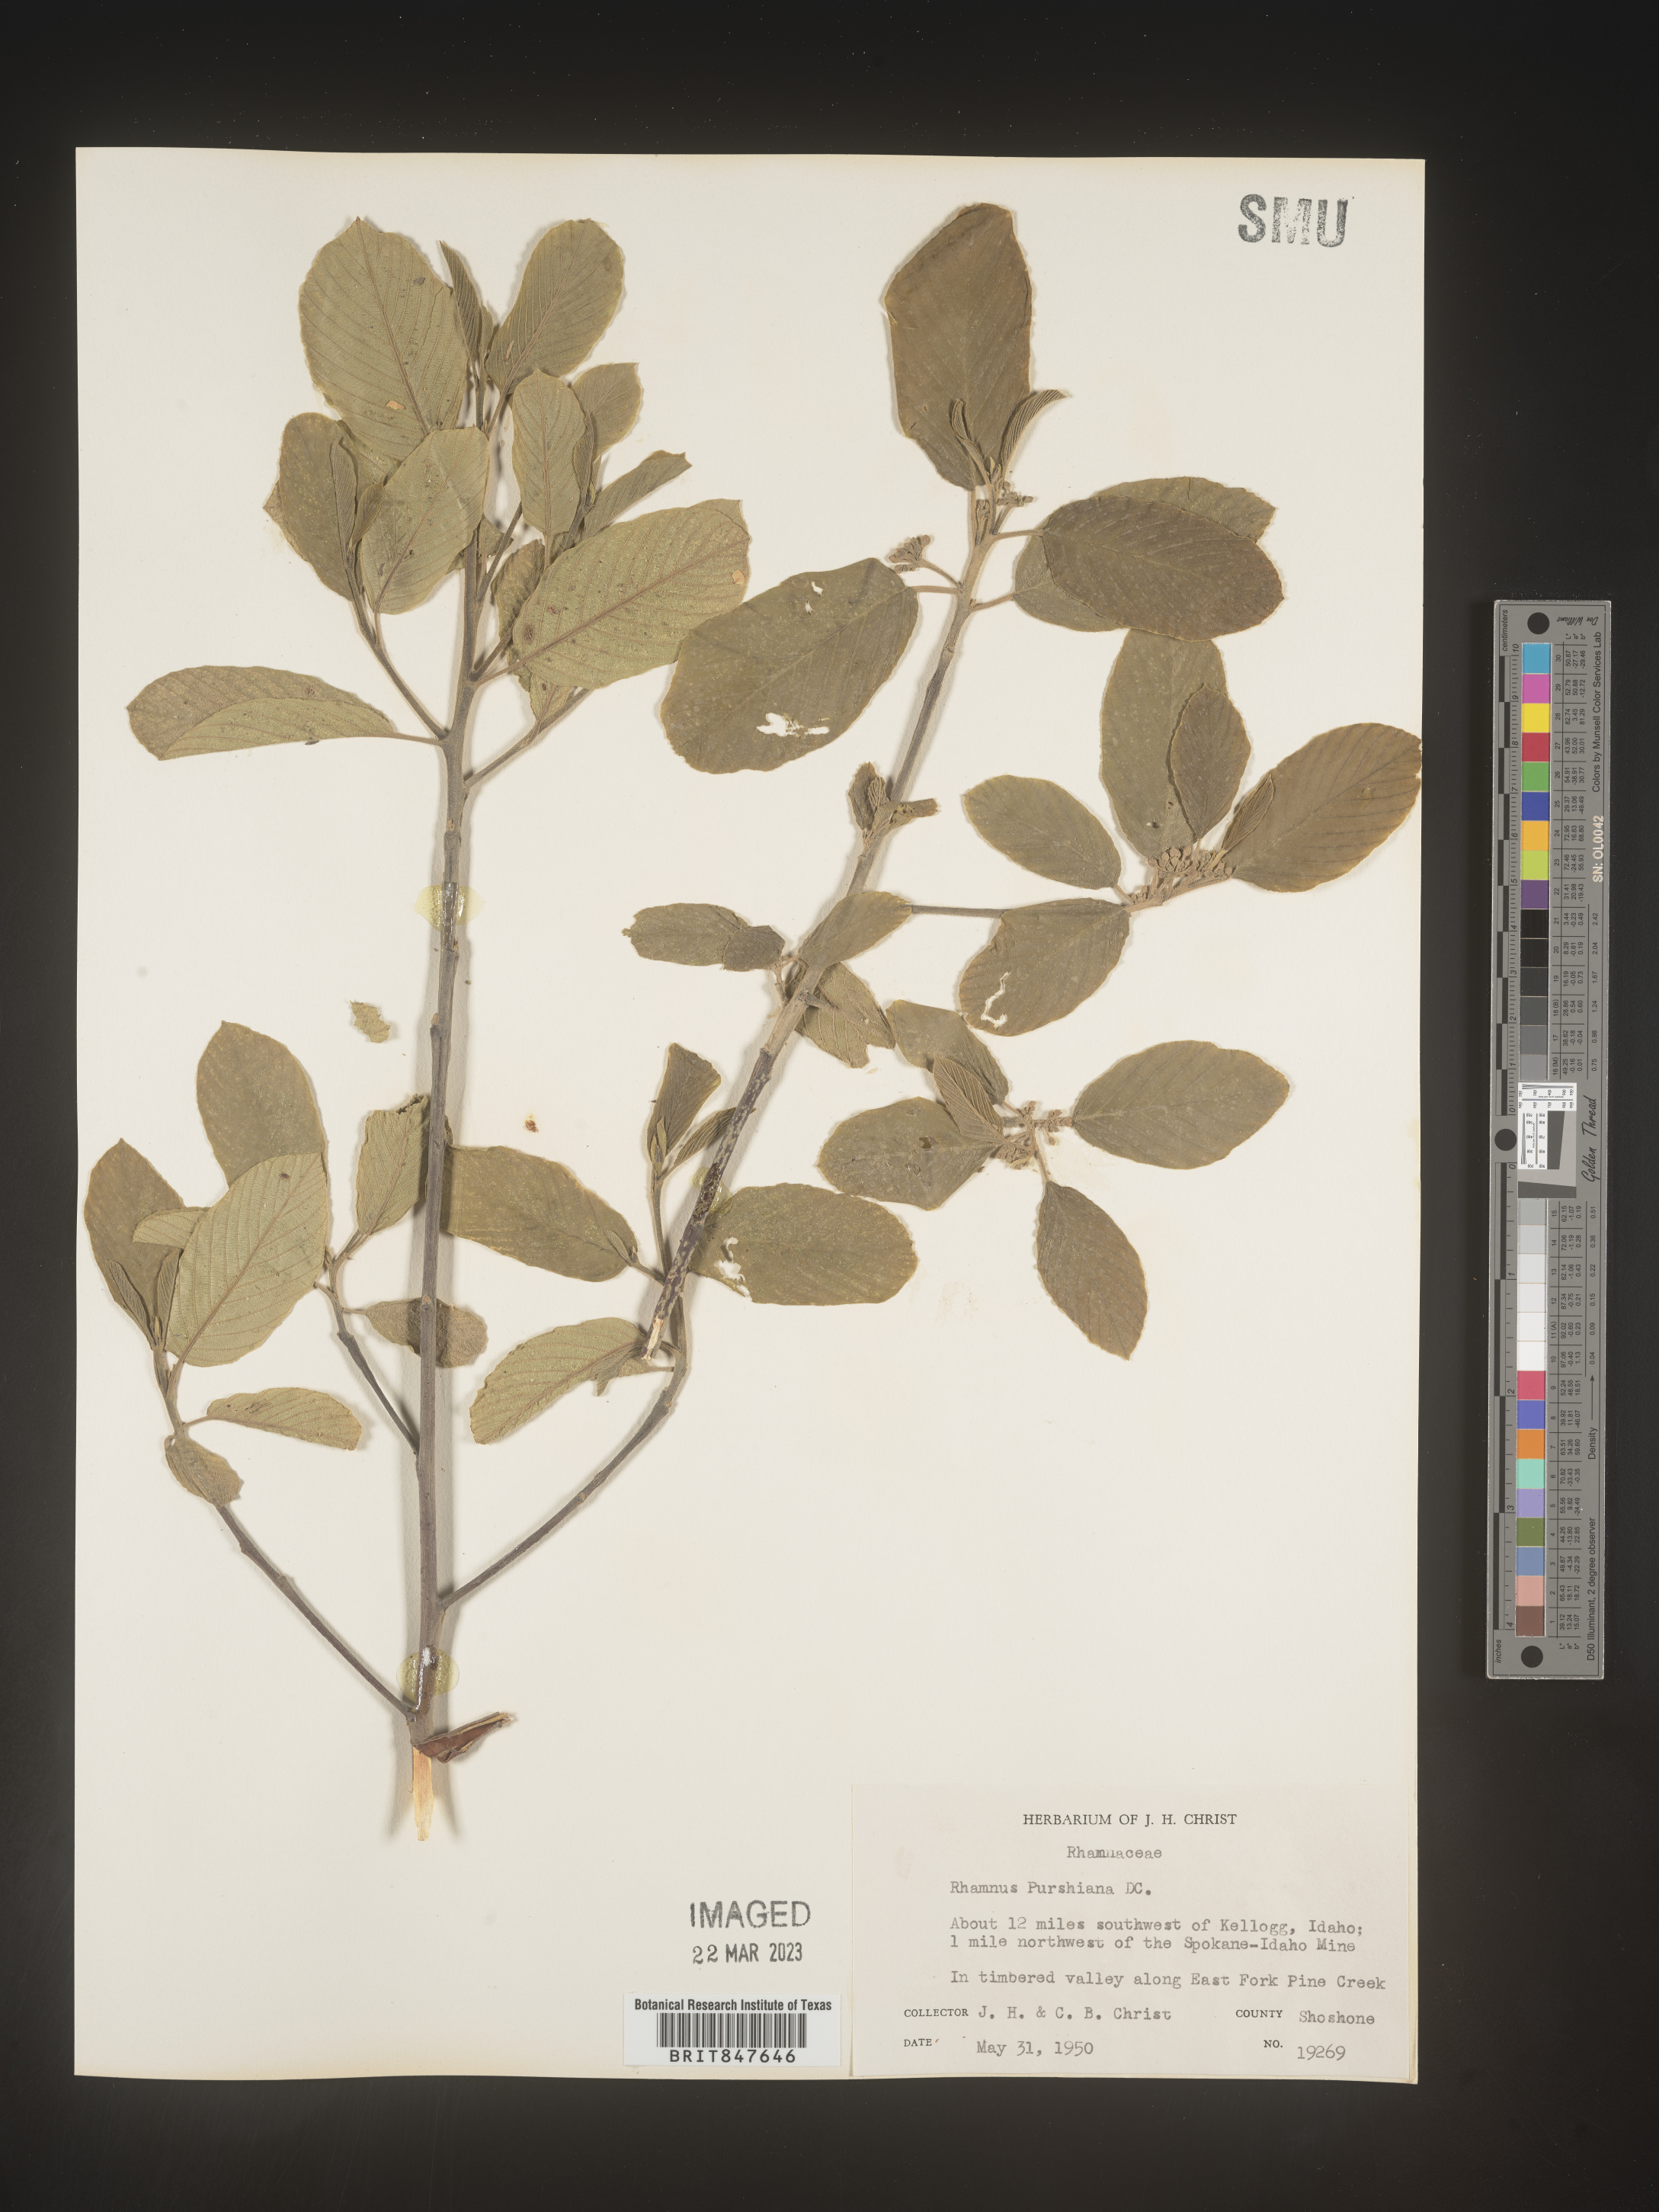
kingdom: Plantae
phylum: Tracheophyta
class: Magnoliopsida
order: Rosales
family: Rhamnaceae
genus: Frangula
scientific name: Frangula purshiana
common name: Cascara buckthorn
